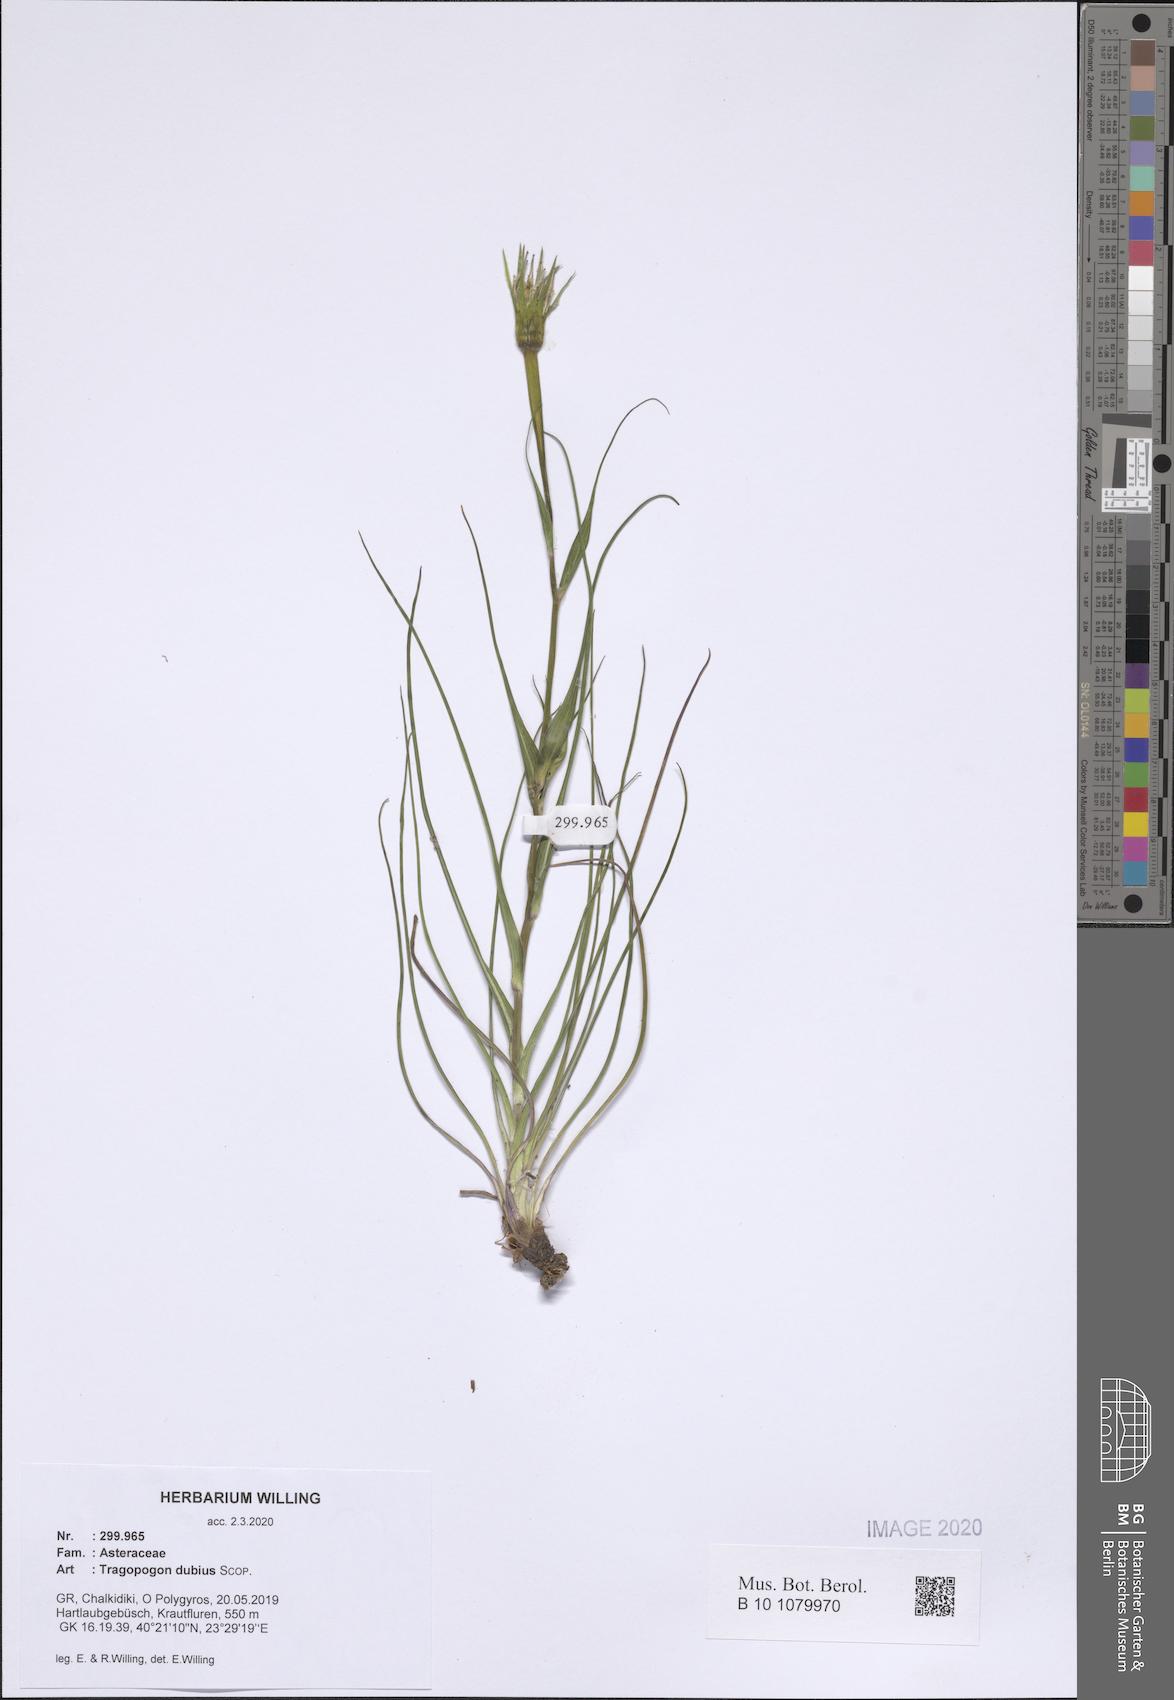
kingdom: Plantae
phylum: Tracheophyta
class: Magnoliopsida
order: Asterales
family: Asteraceae
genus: Tragopogon
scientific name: Tragopogon dubius
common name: Yellow salsify
